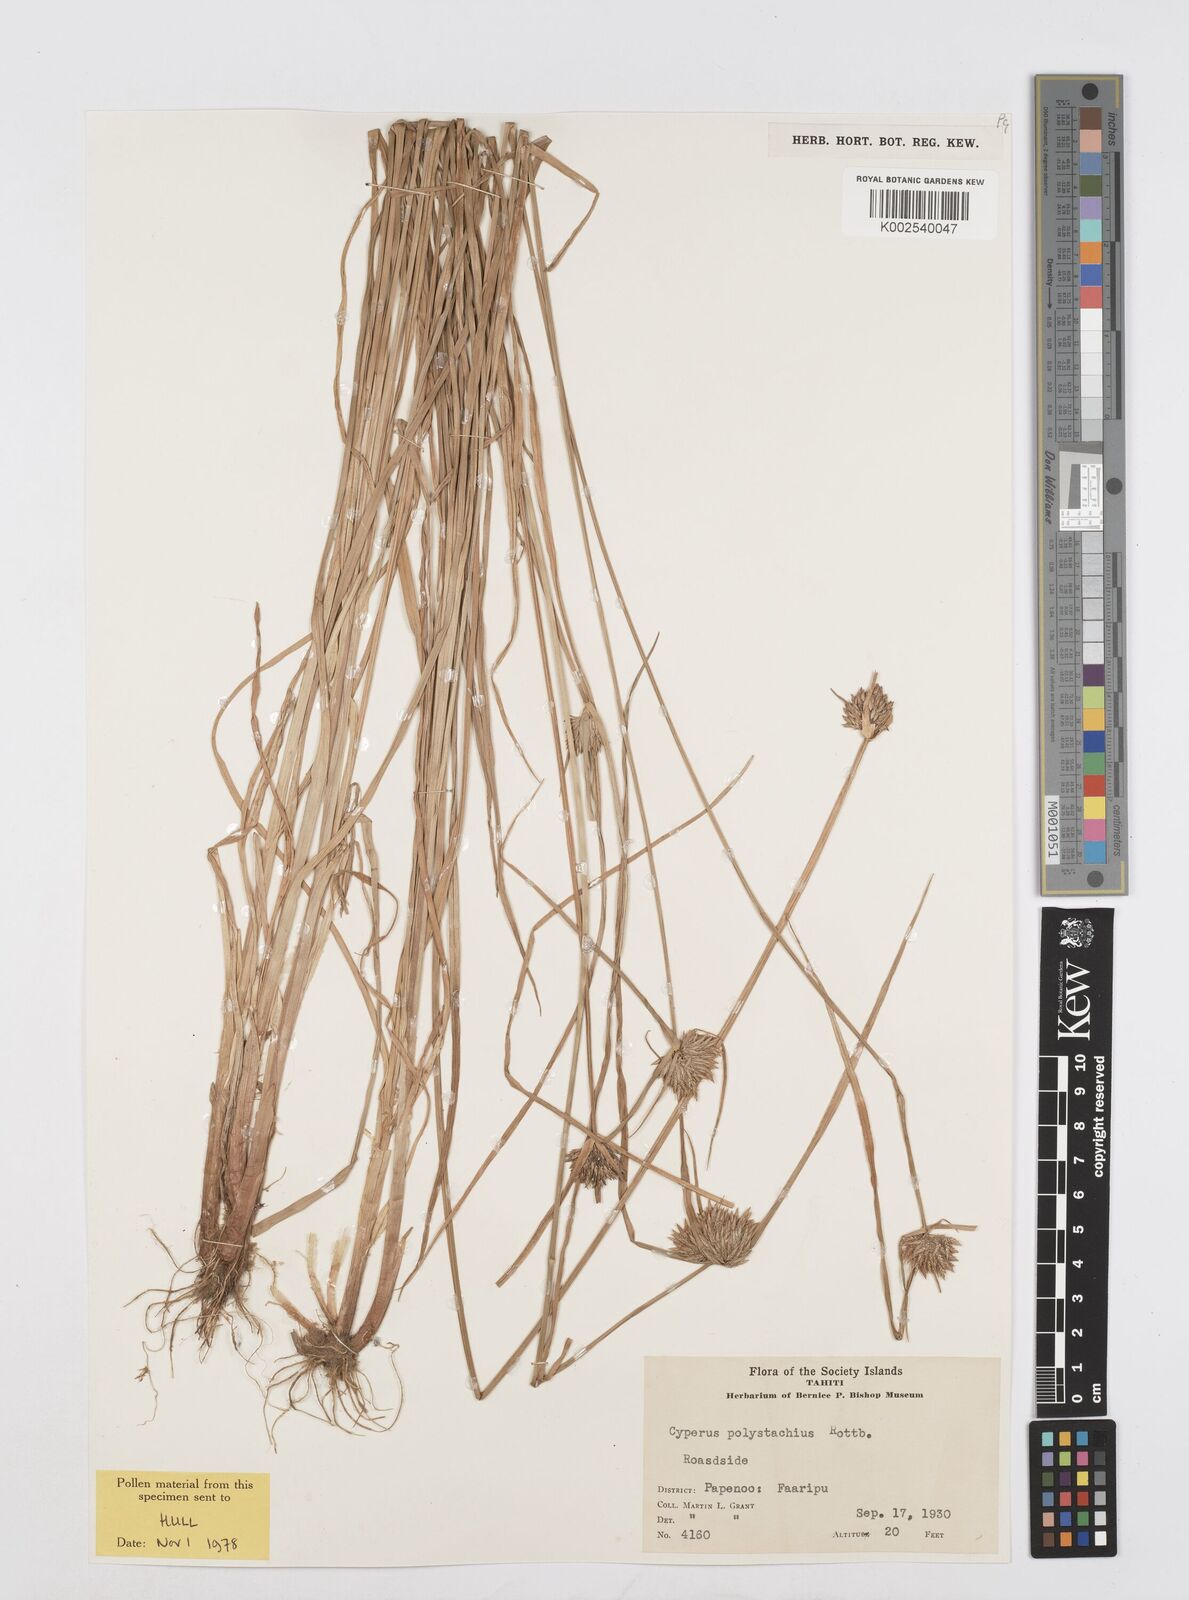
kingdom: Plantae
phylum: Tracheophyta
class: Liliopsida
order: Poales
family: Cyperaceae
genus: Cyperus
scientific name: Cyperus polystachyos
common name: Bunchy flat sedge
